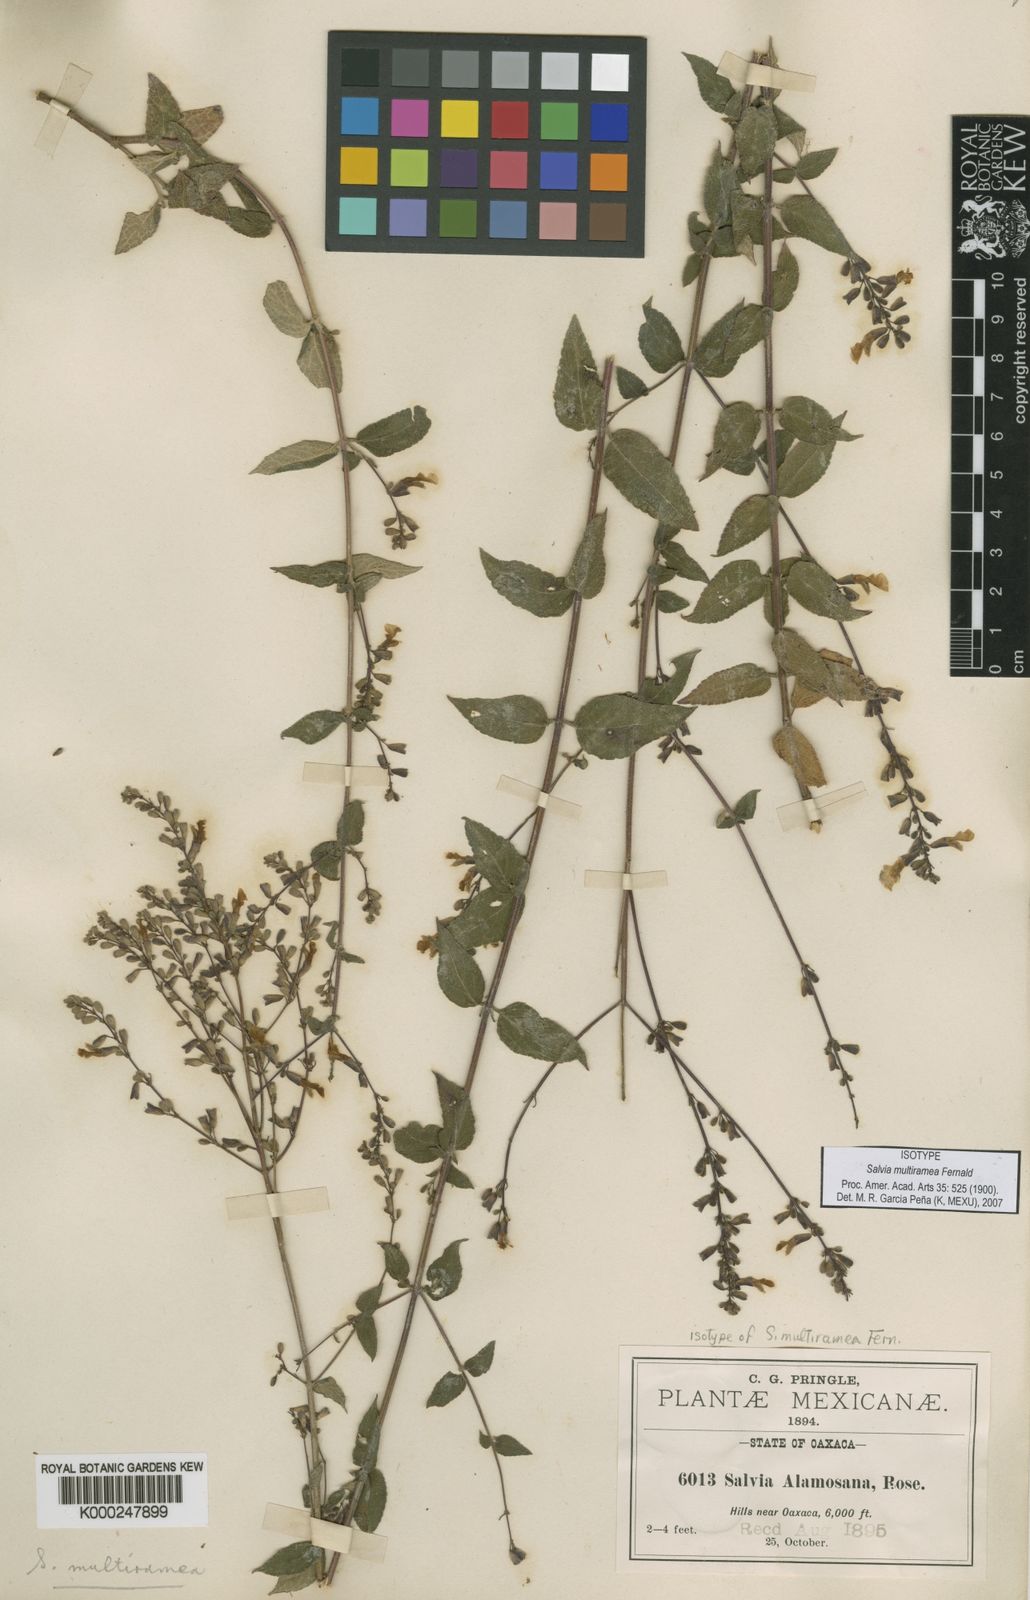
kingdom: Plantae
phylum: Tracheophyta
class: Magnoliopsida
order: Lamiales
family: Lamiaceae
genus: Salvia
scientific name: Salvia protracta
